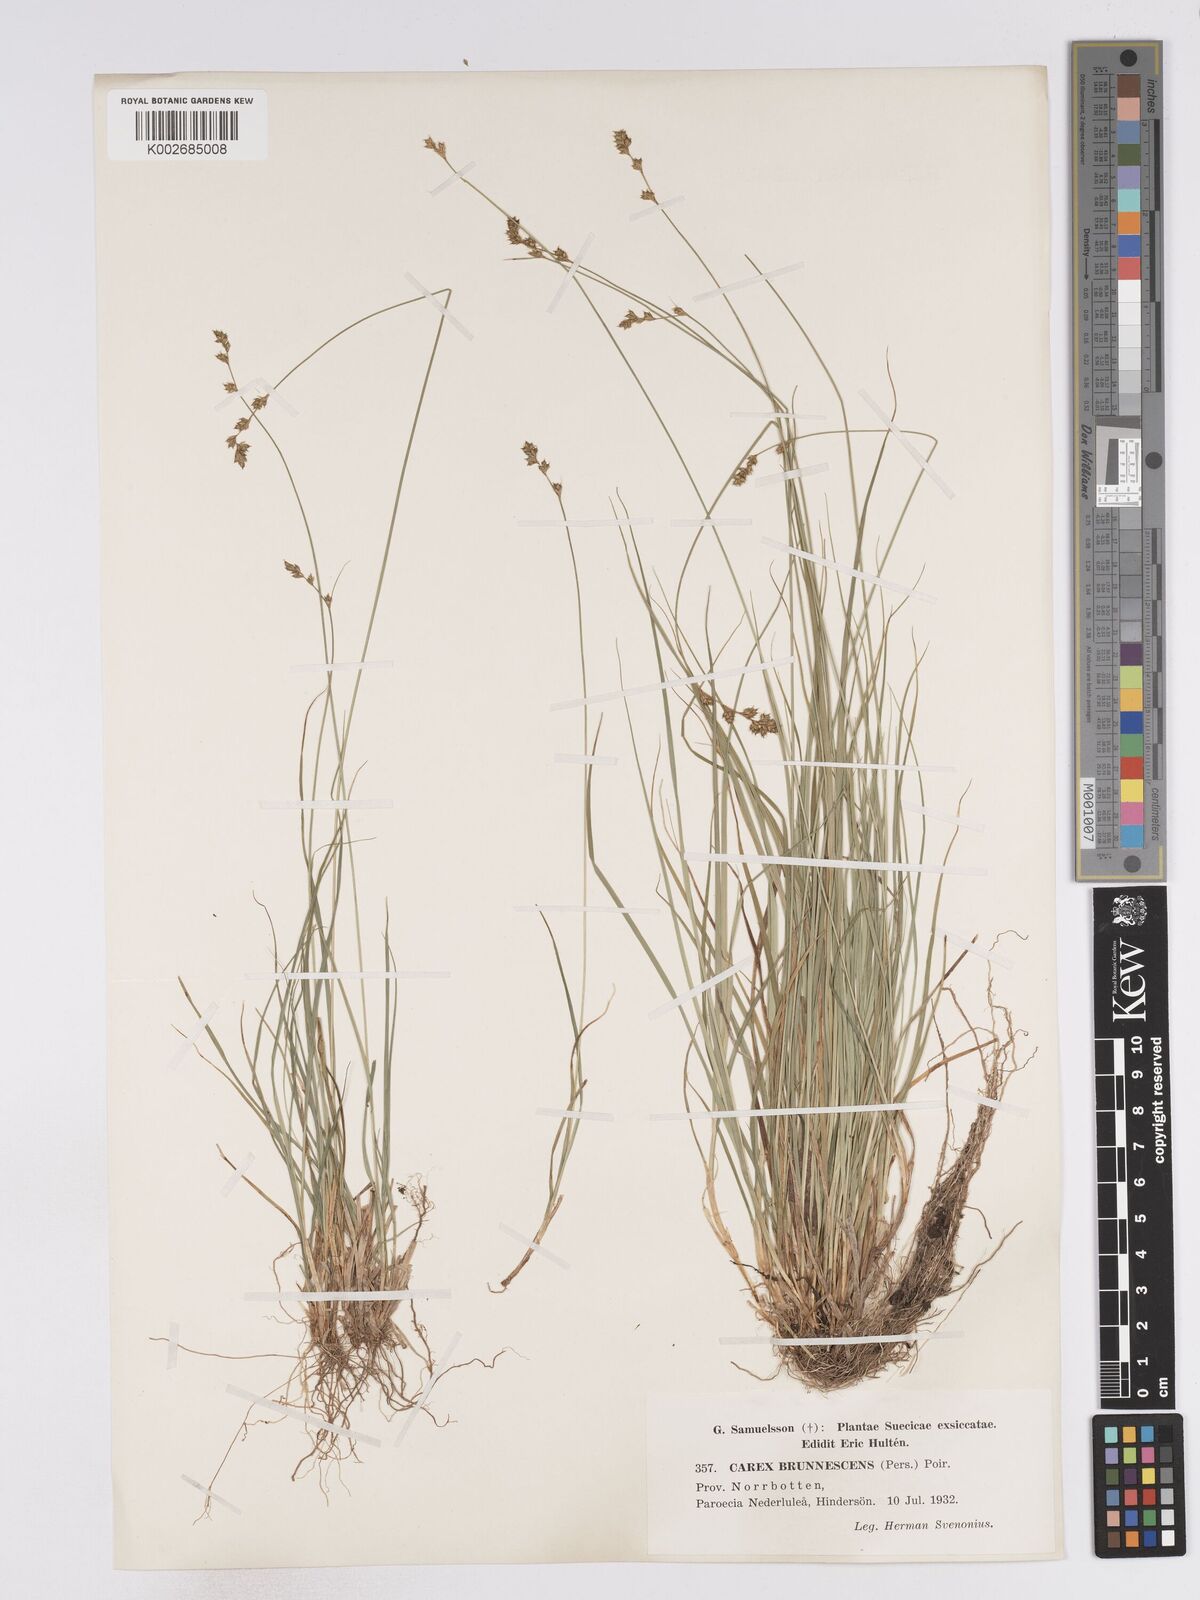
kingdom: Plantae
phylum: Tracheophyta
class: Liliopsida
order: Poales
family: Cyperaceae
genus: Carex
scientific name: Carex brunnescens
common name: Brown sedge
